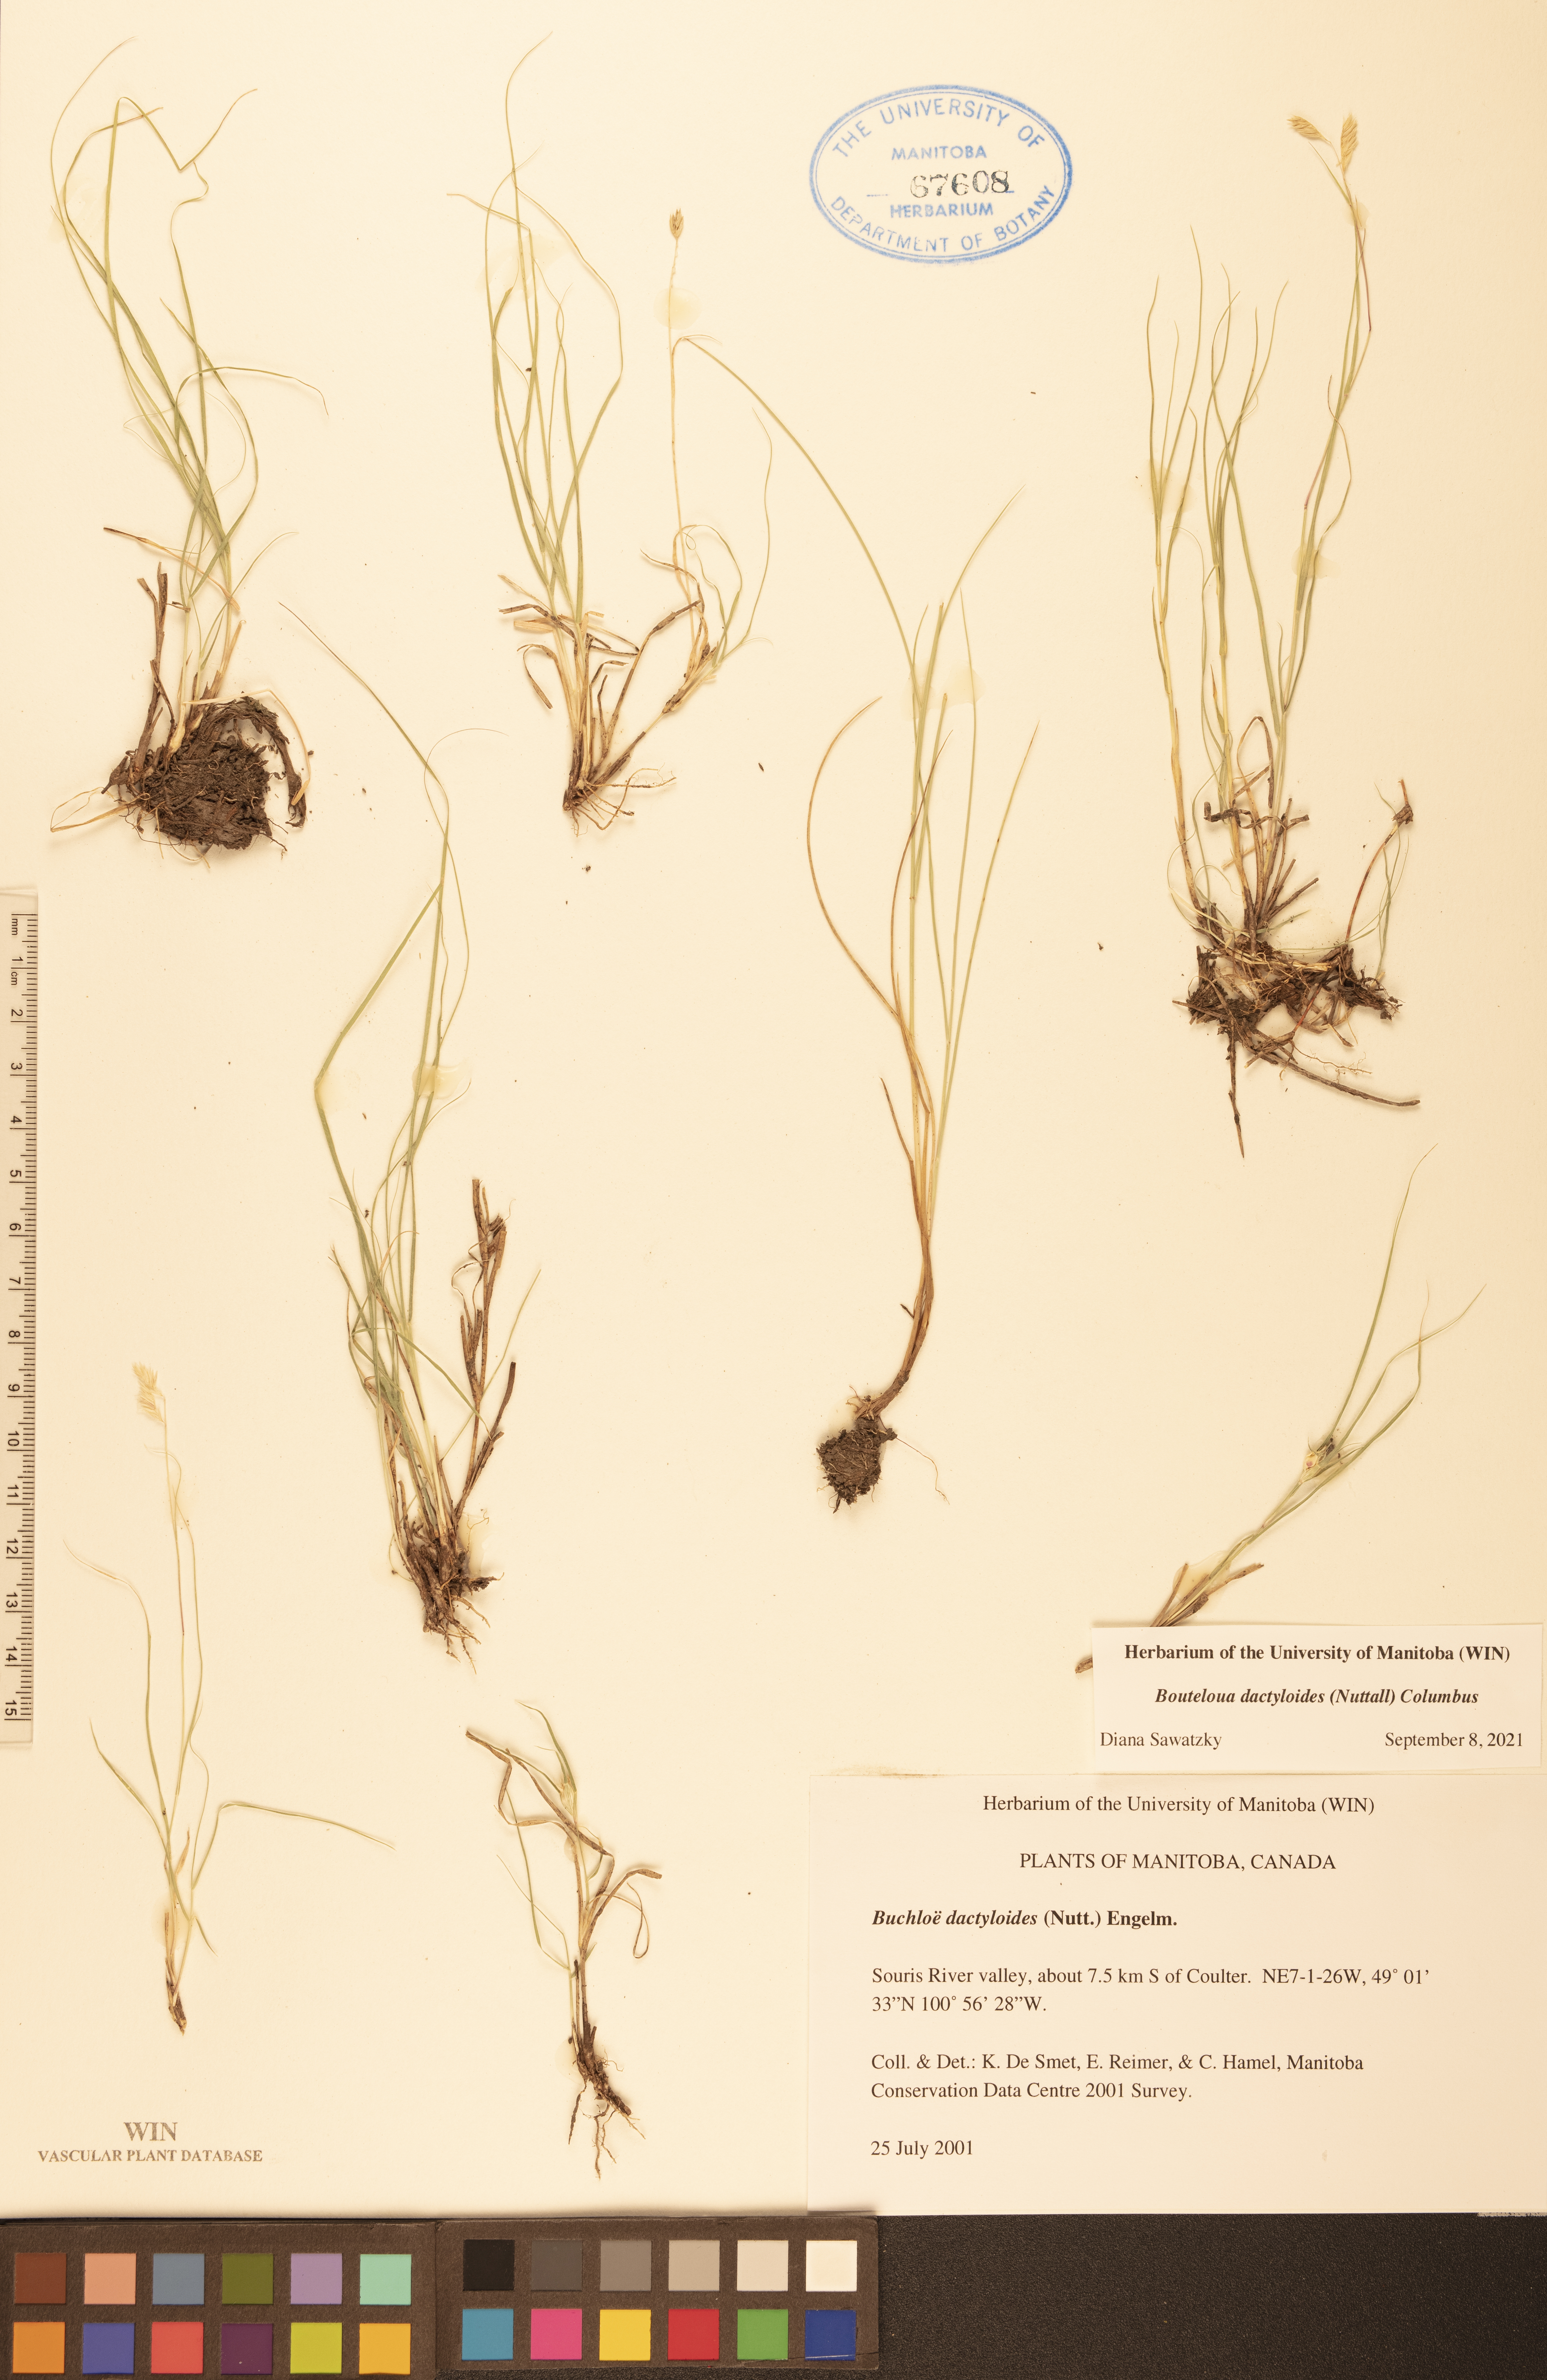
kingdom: Plantae
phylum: Tracheophyta
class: Liliopsida
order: Poales
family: Poaceae
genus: Bouteloua
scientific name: Bouteloua dactyloides
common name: Buffalo grass
